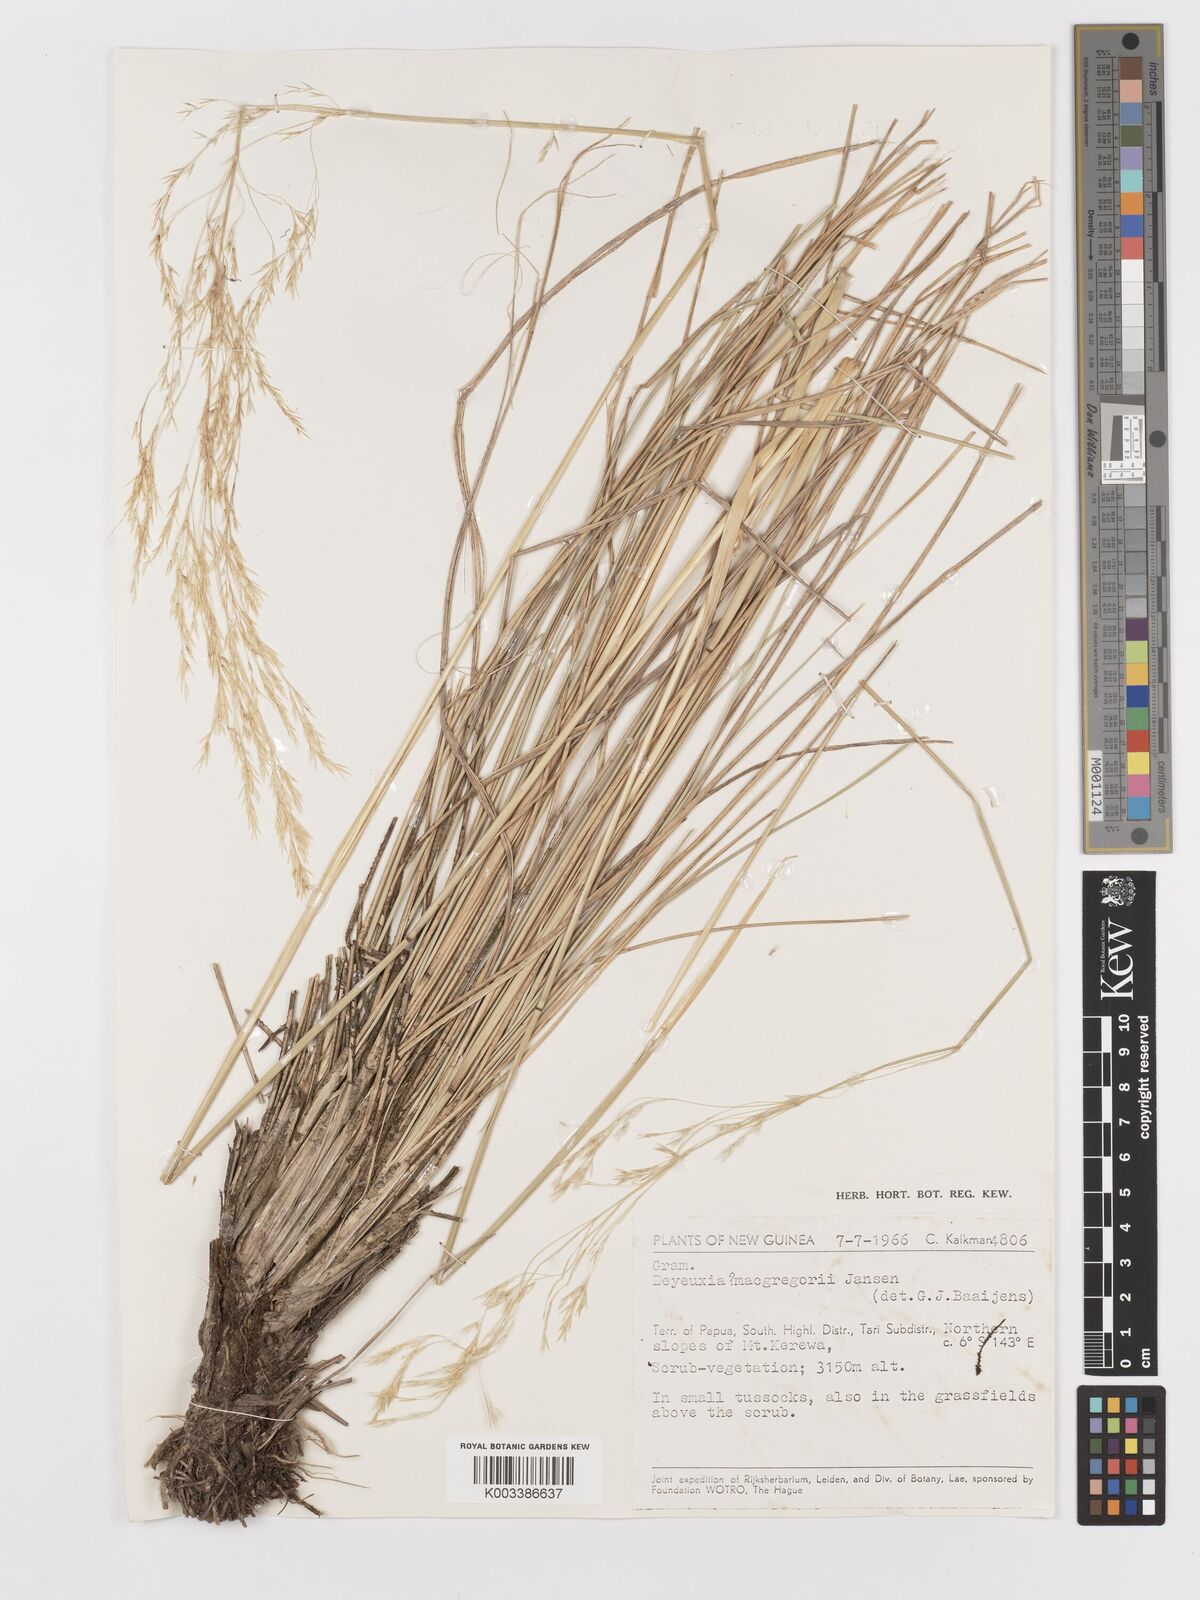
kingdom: Plantae
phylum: Tracheophyta
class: Liliopsida
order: Poales
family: Poaceae
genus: Deschampsia
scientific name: Deschampsia klossii
